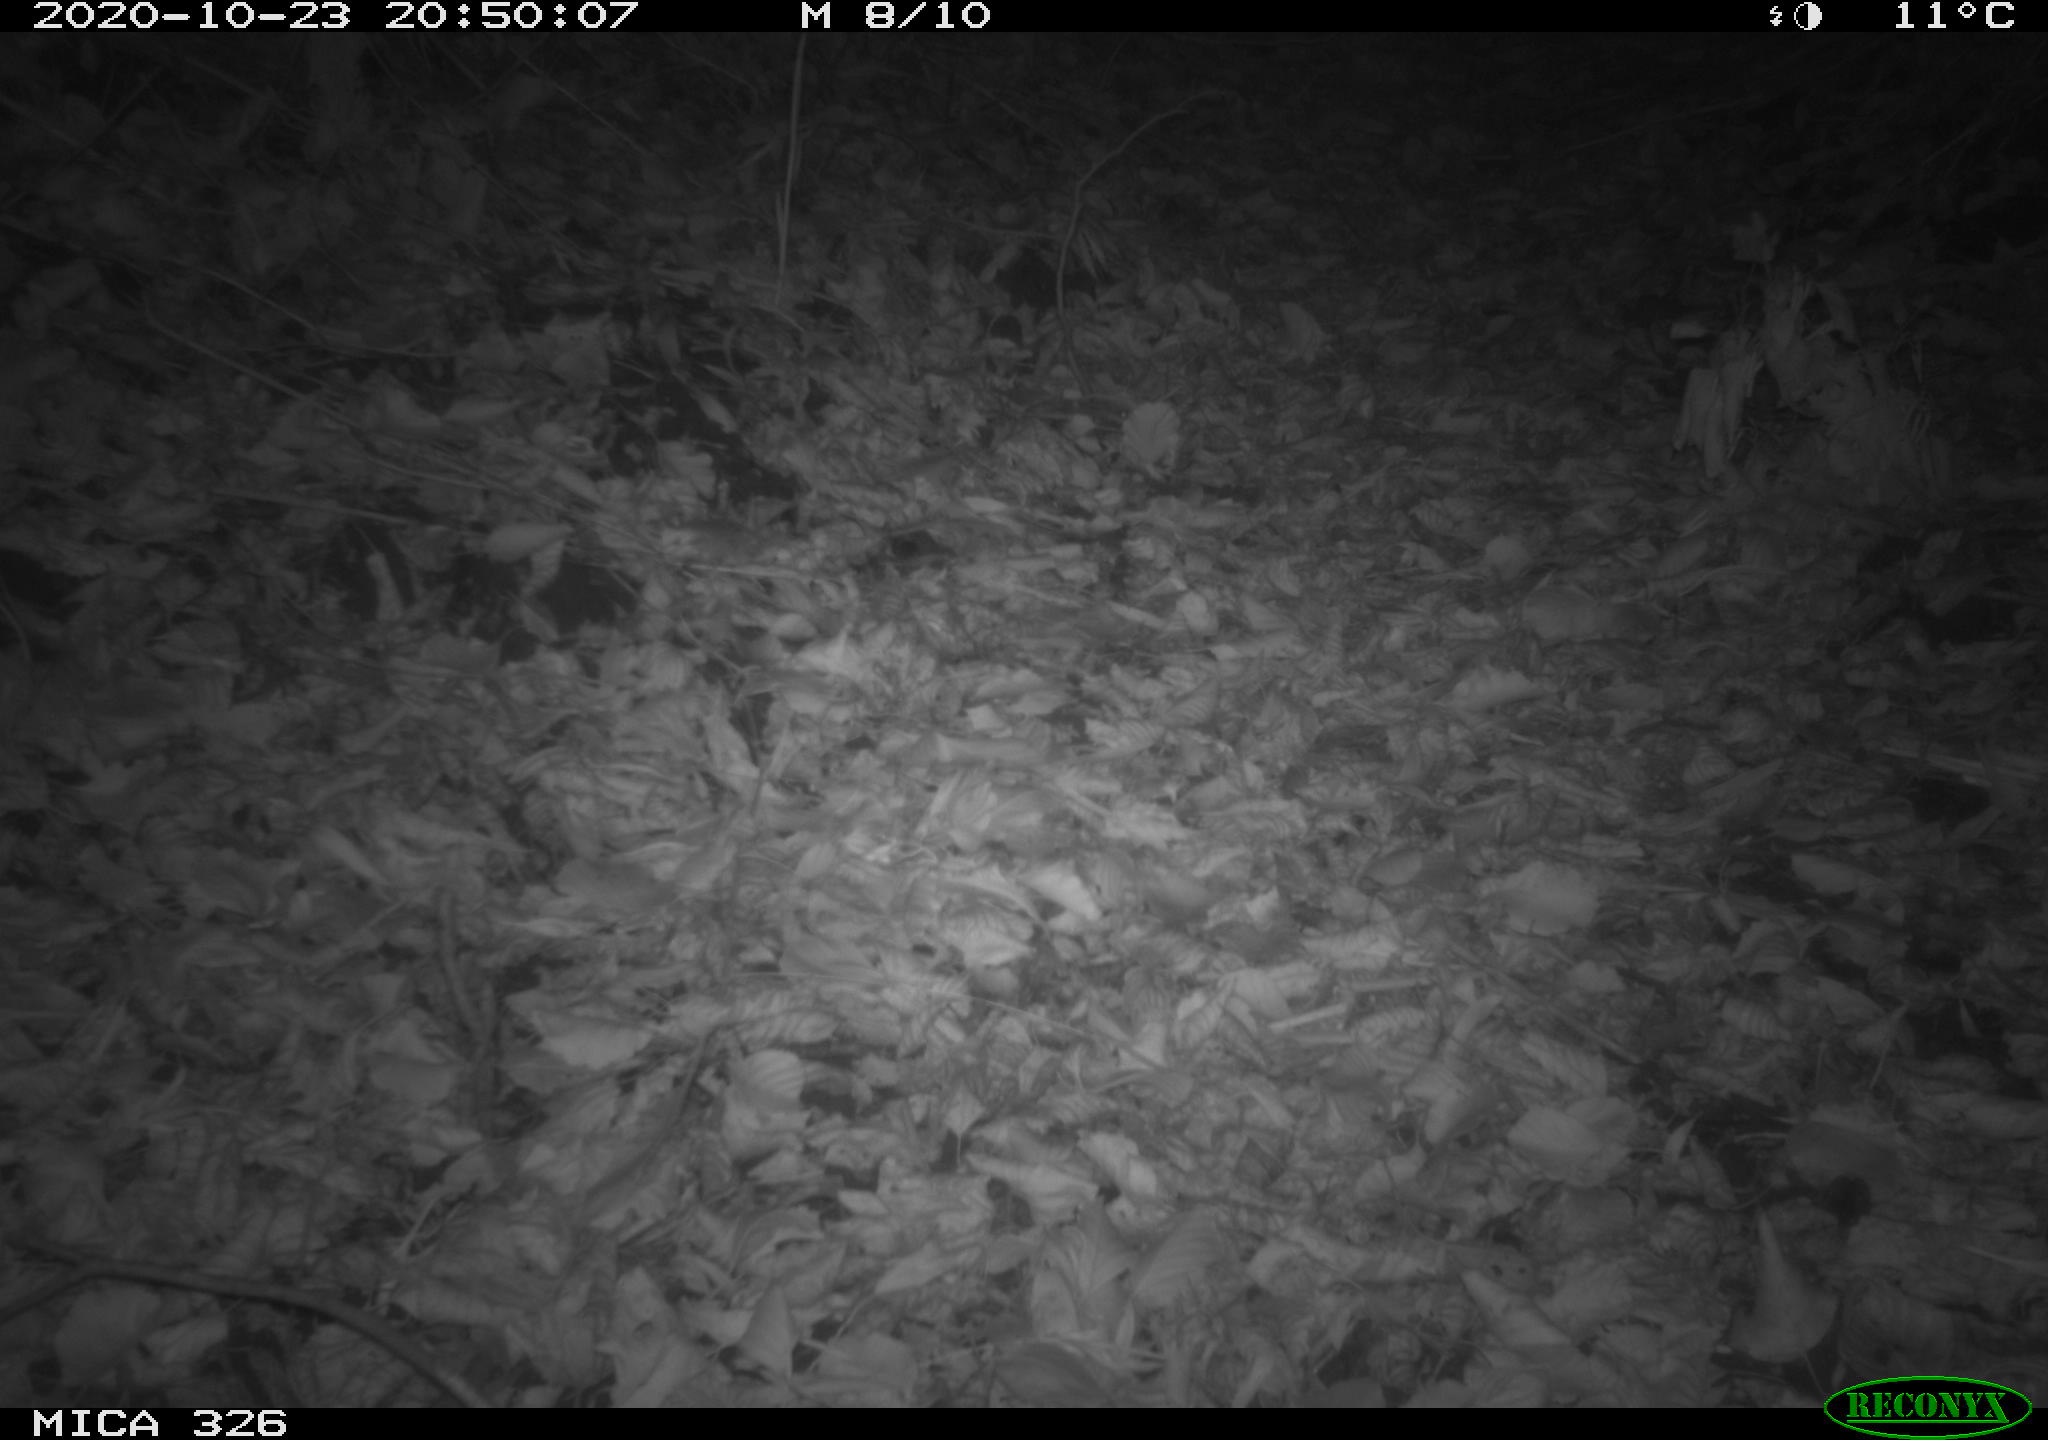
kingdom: Animalia
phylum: Chordata
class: Mammalia
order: Rodentia
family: Muridae
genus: Rattus
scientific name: Rattus norvegicus
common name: Brown rat
